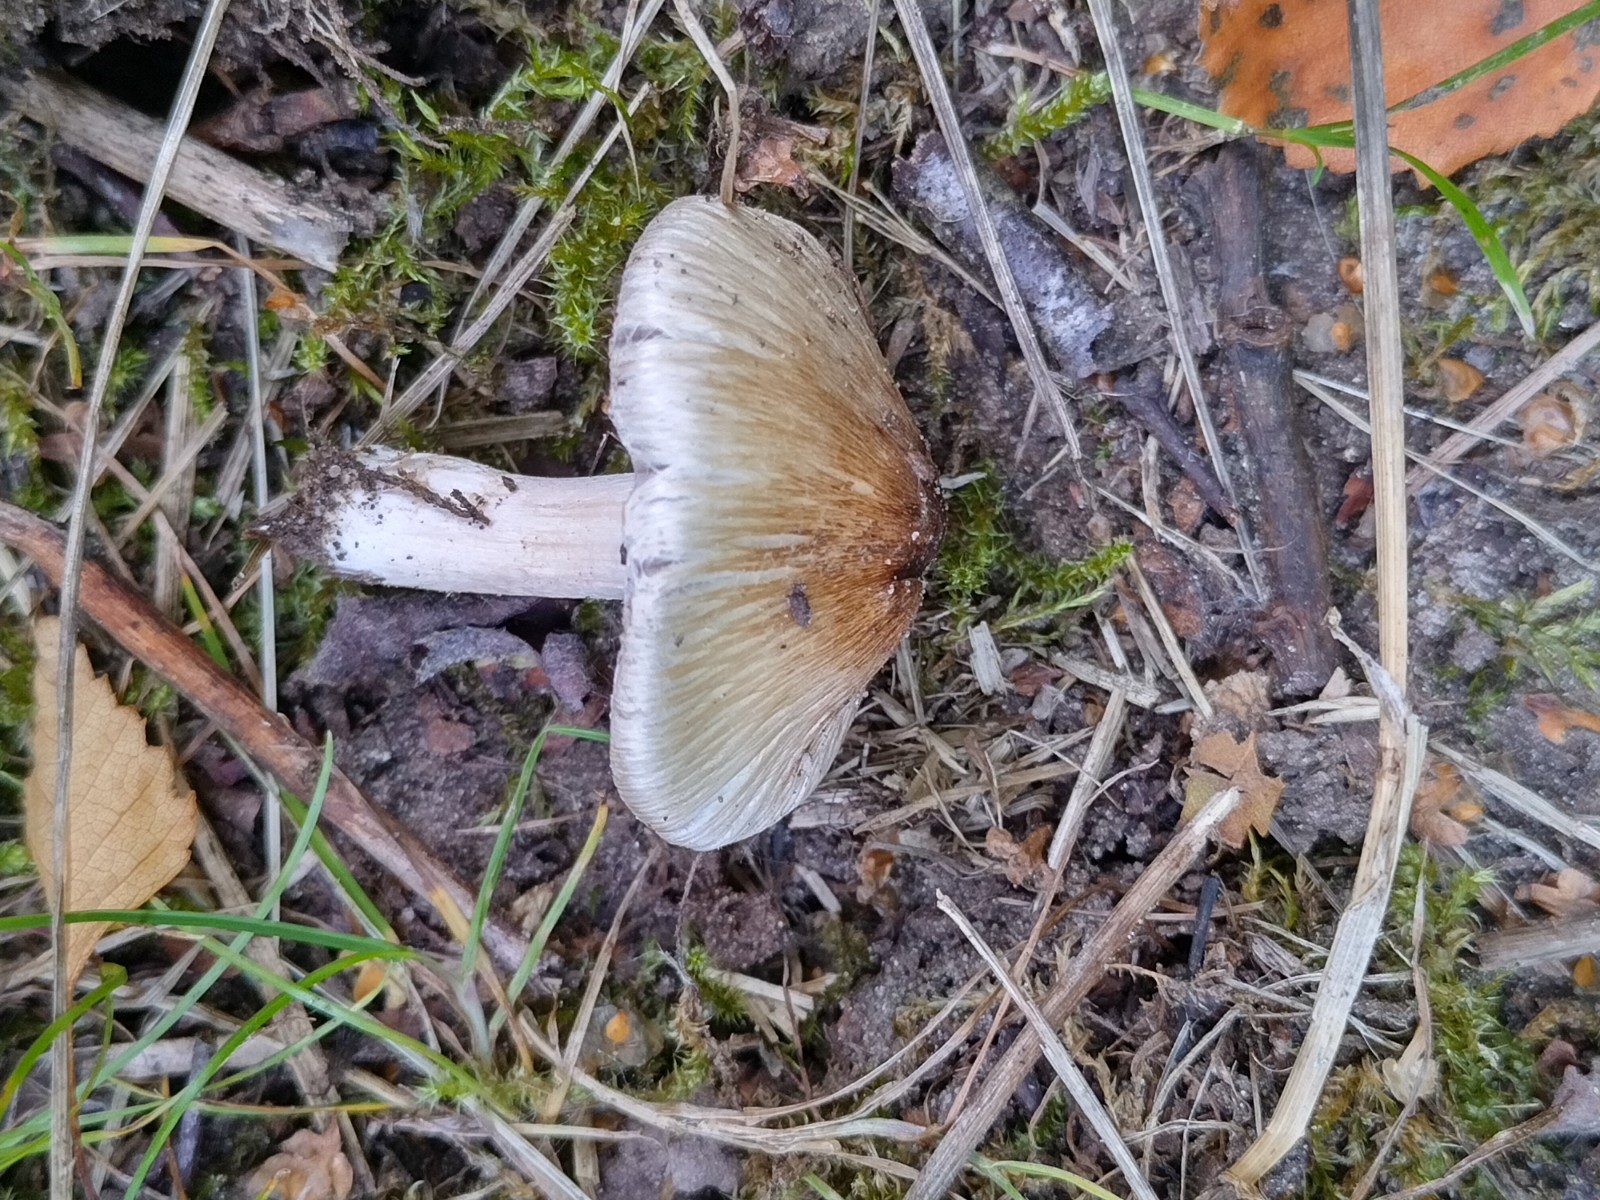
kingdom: Fungi
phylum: Basidiomycota
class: Agaricomycetes
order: Agaricales
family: Inocybaceae
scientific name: Inocybaceae
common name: trævlhatfamilien
